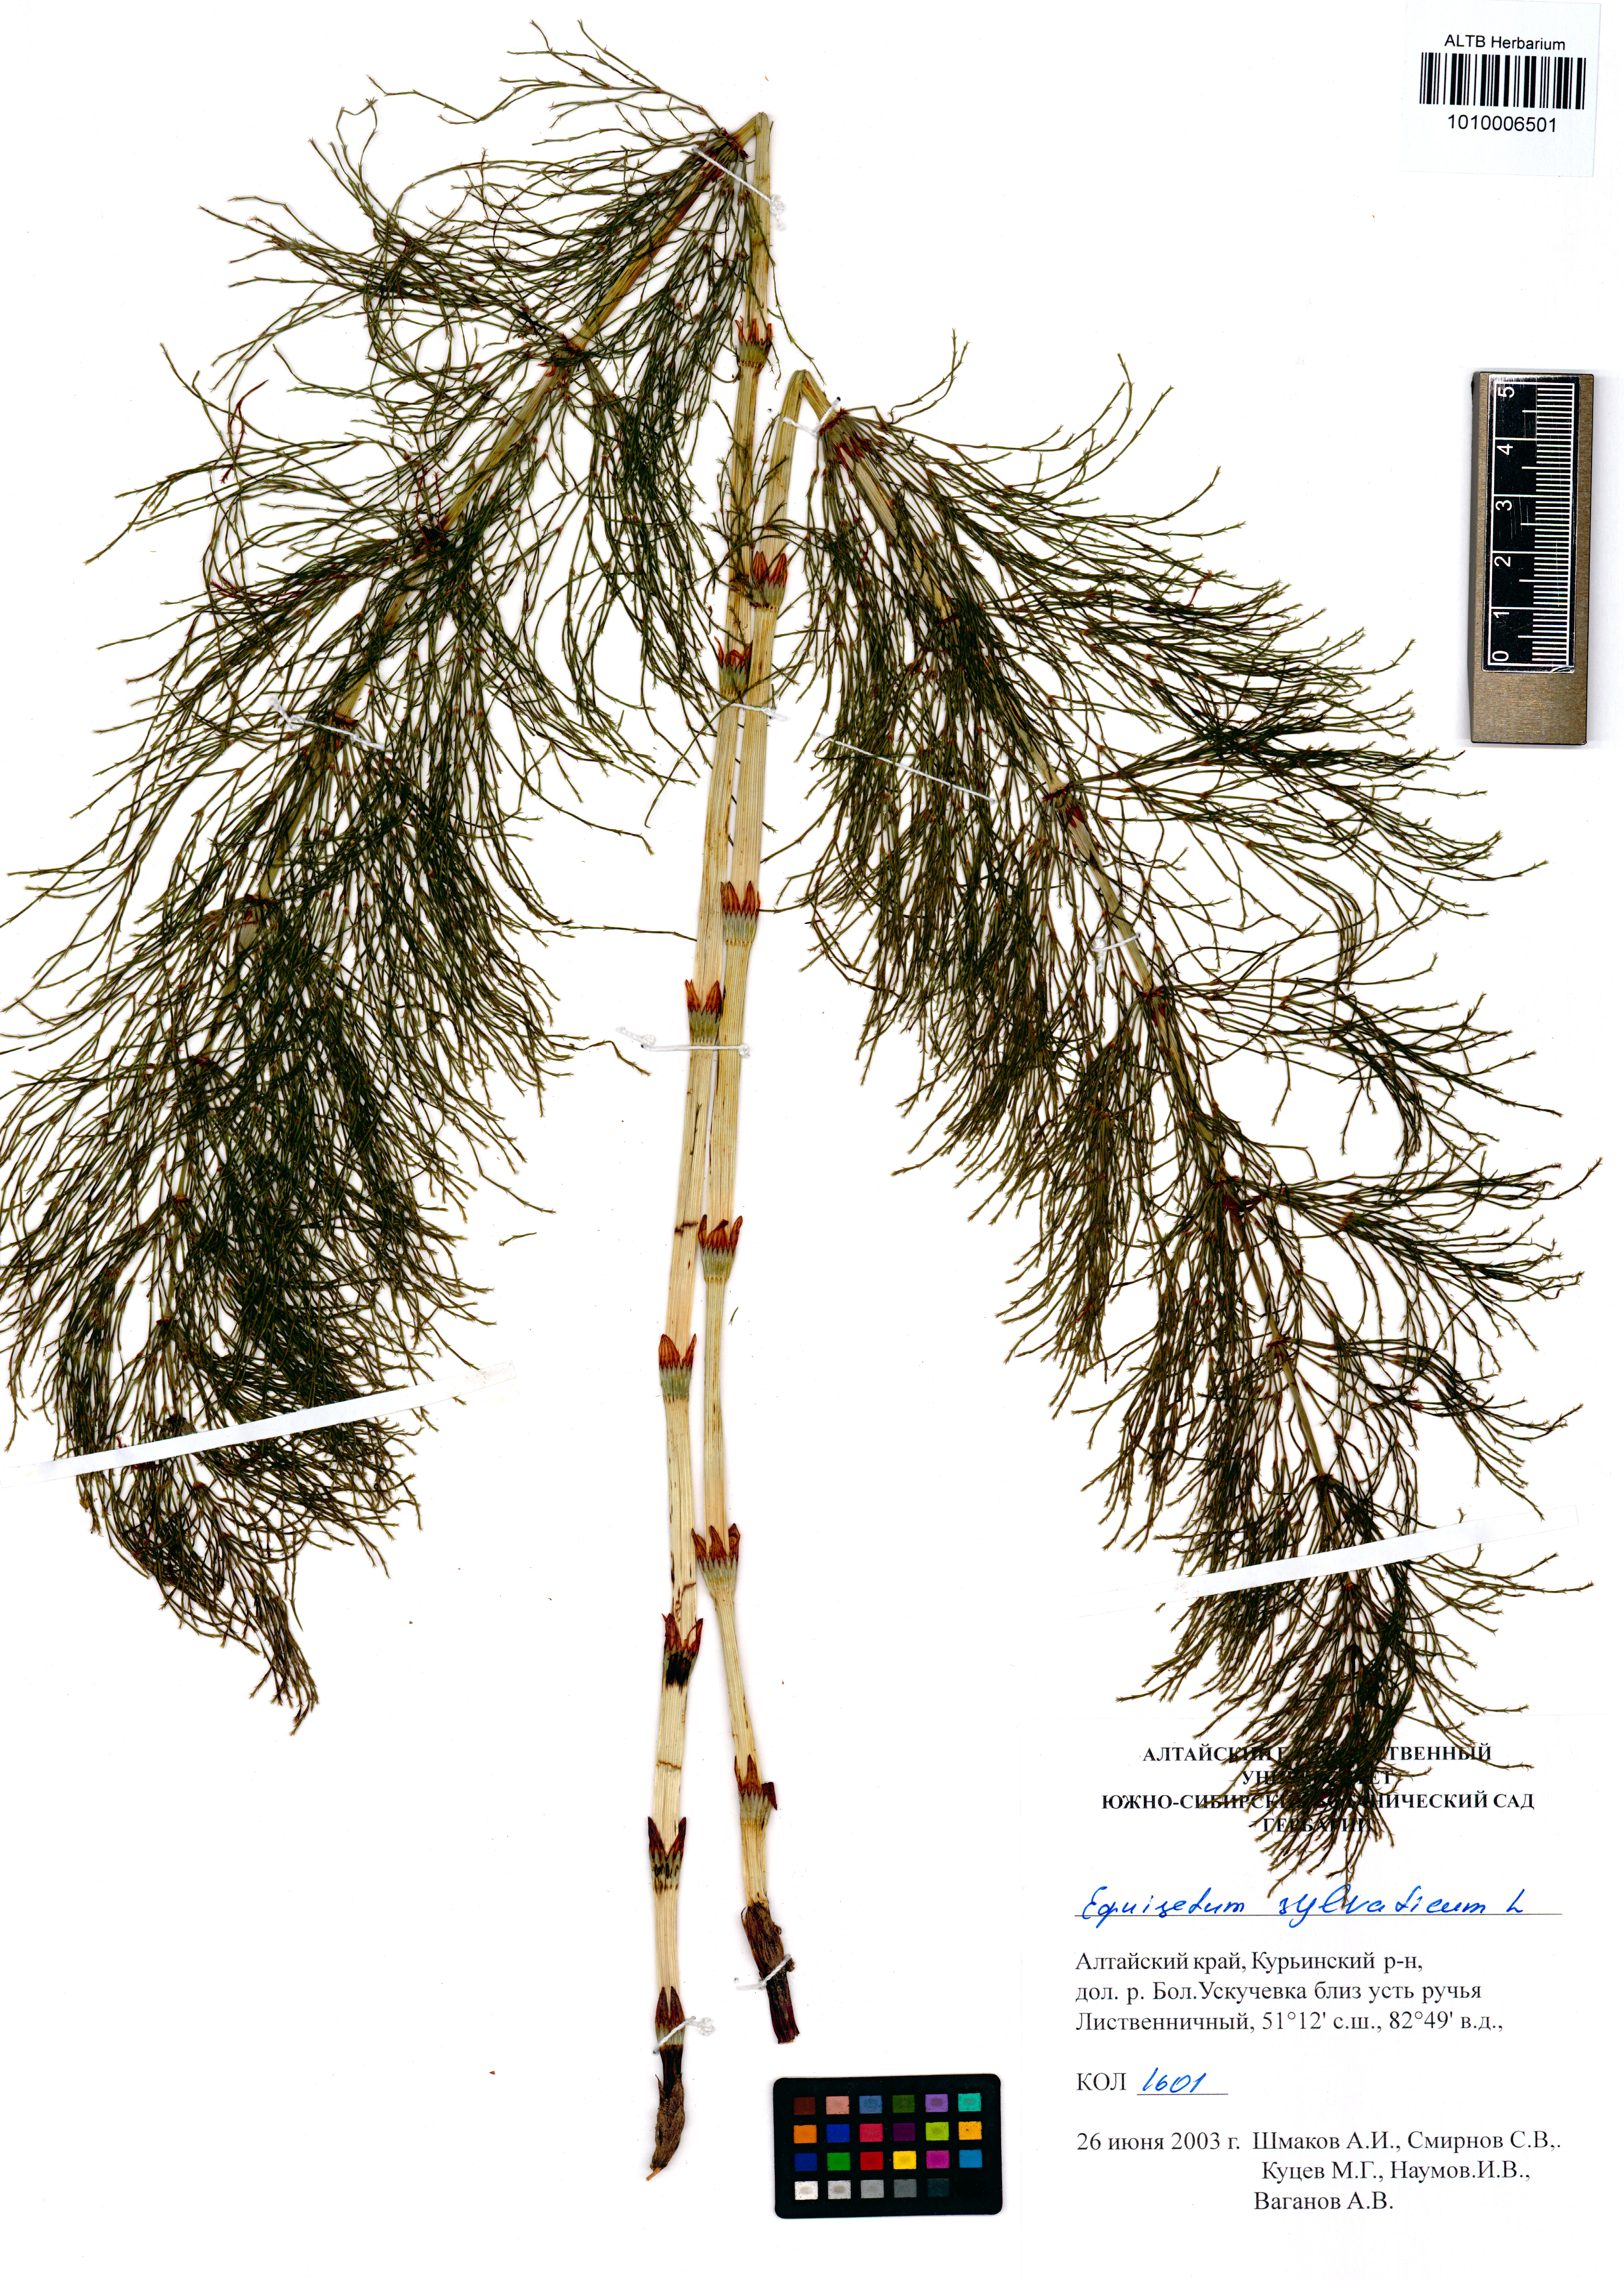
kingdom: Plantae
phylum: Tracheophyta
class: Polypodiopsida
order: Equisetales
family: Equisetaceae
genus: Equisetum
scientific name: Equisetum sylvaticum
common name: Wood horsetail
